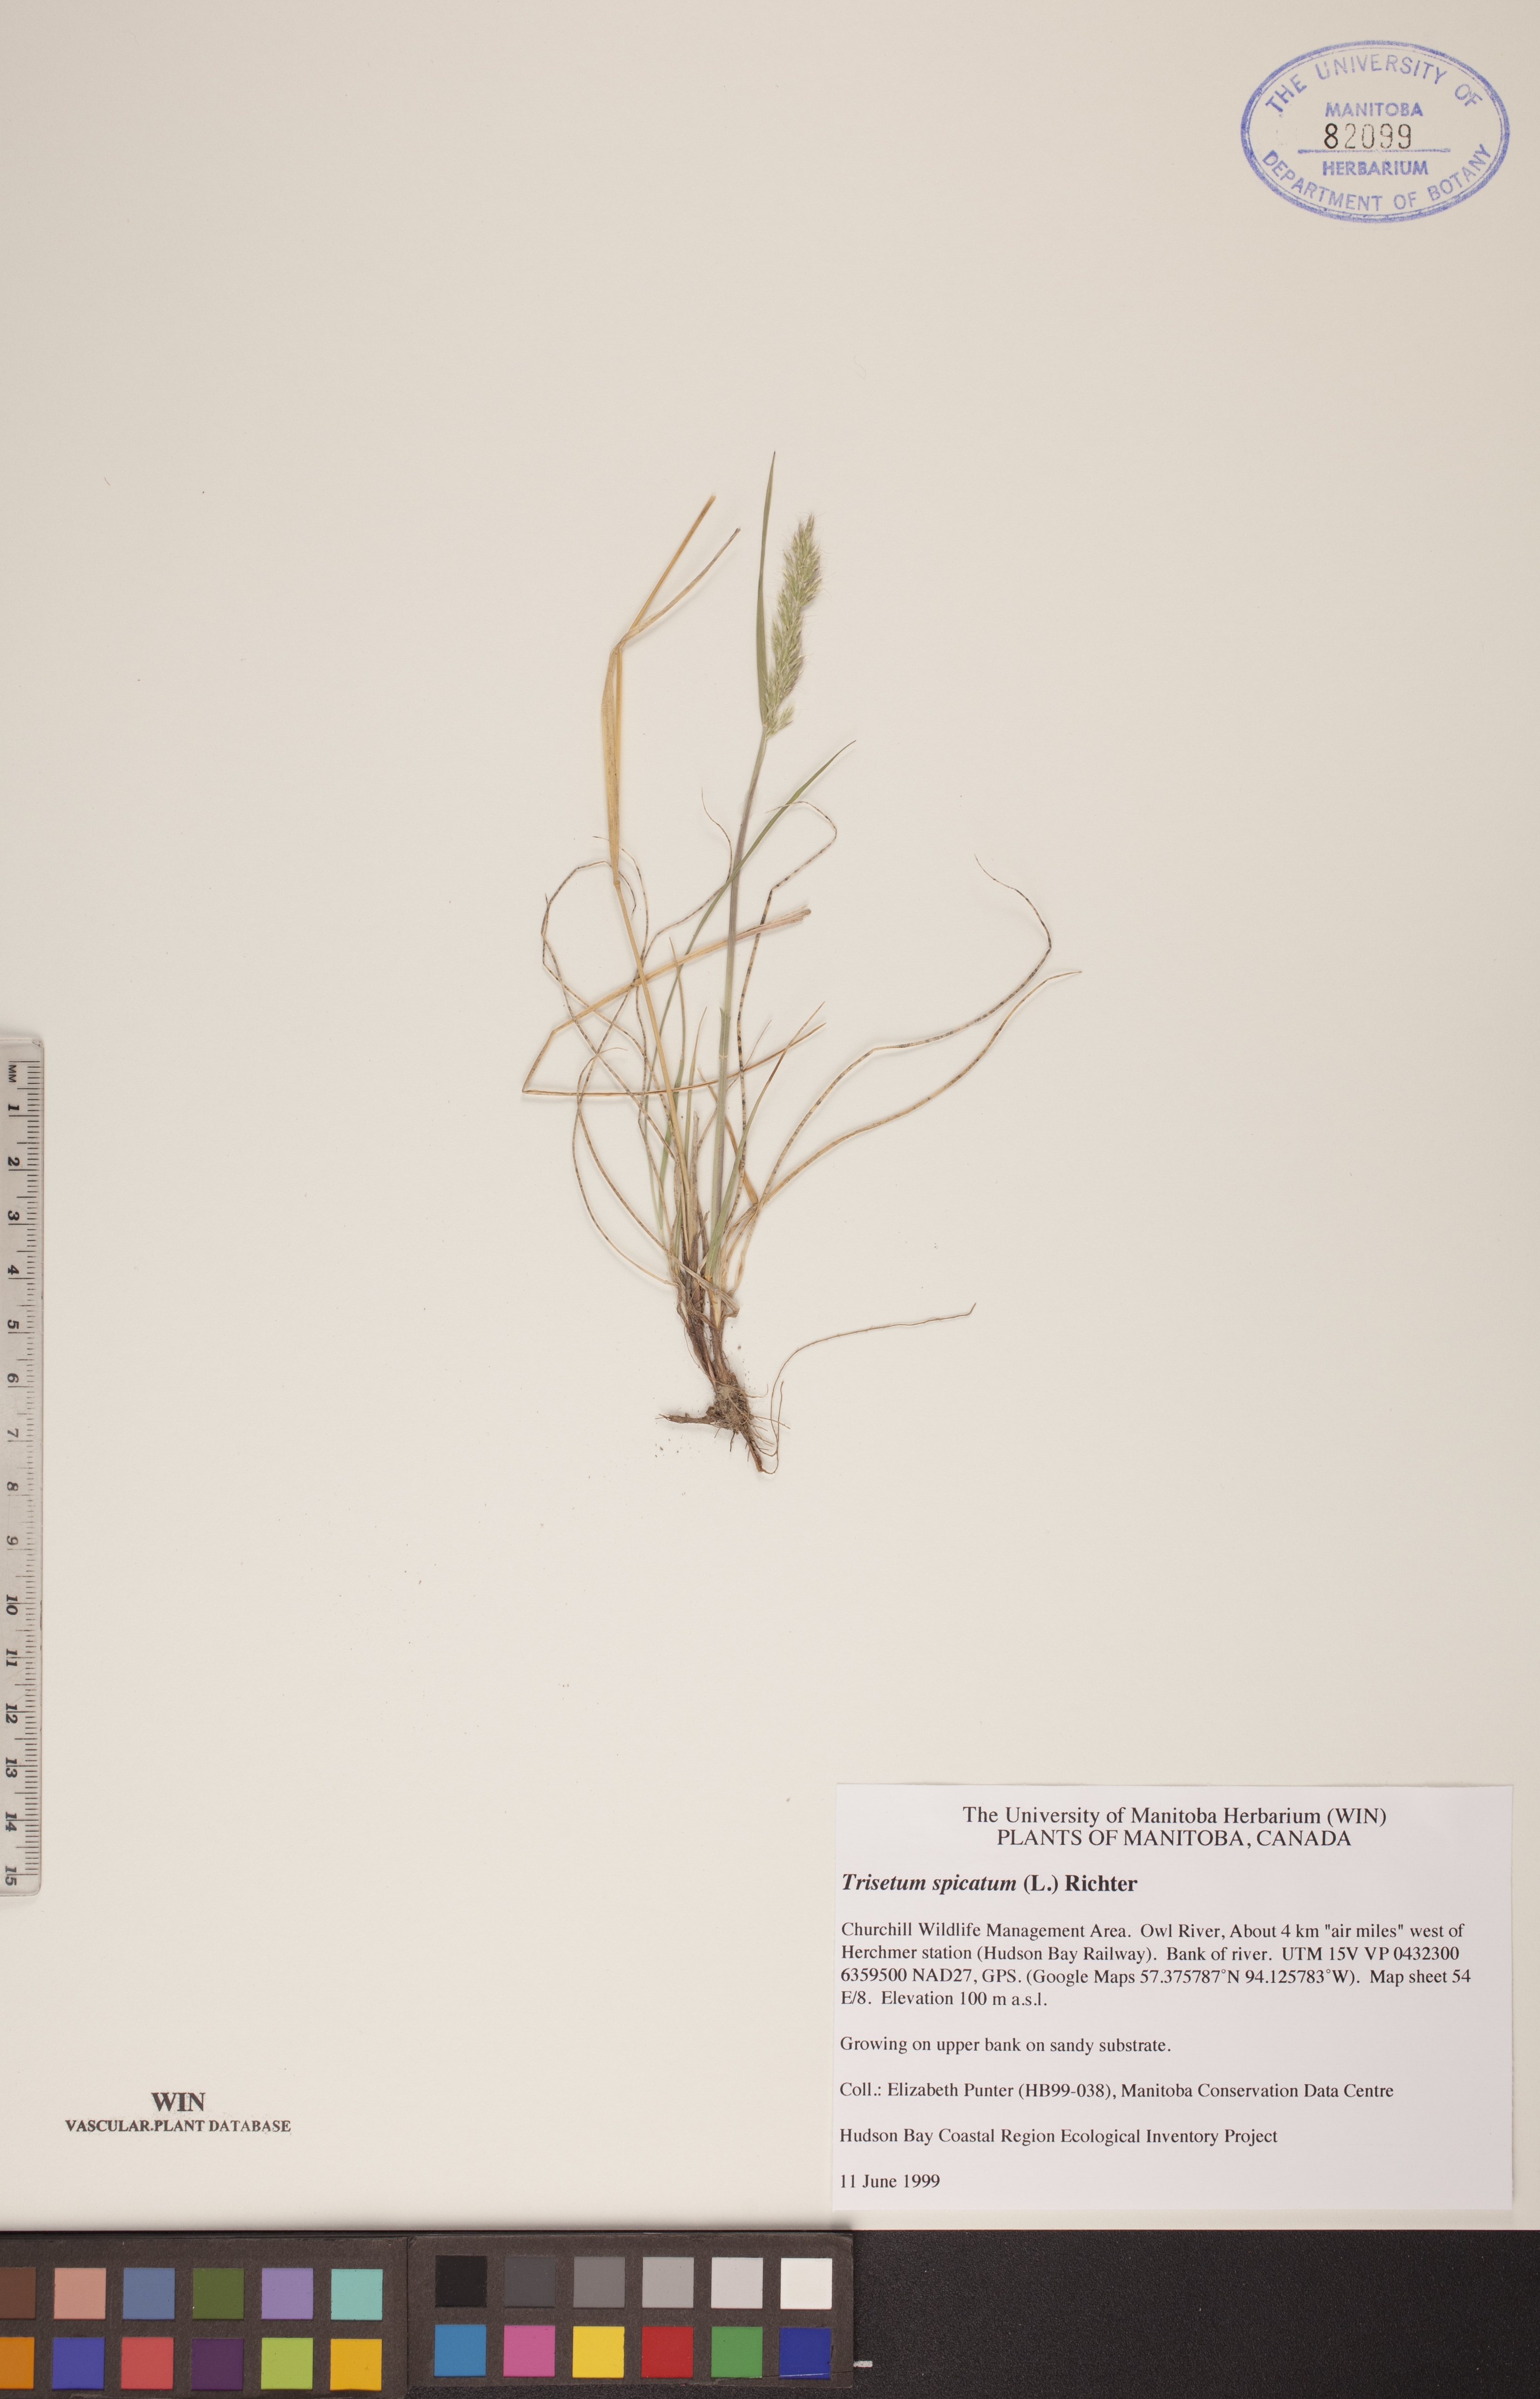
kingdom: Plantae
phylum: Tracheophyta
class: Liliopsida
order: Poales
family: Poaceae
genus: Koeleria
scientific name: Koeleria spicata
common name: Mountain trisetum
